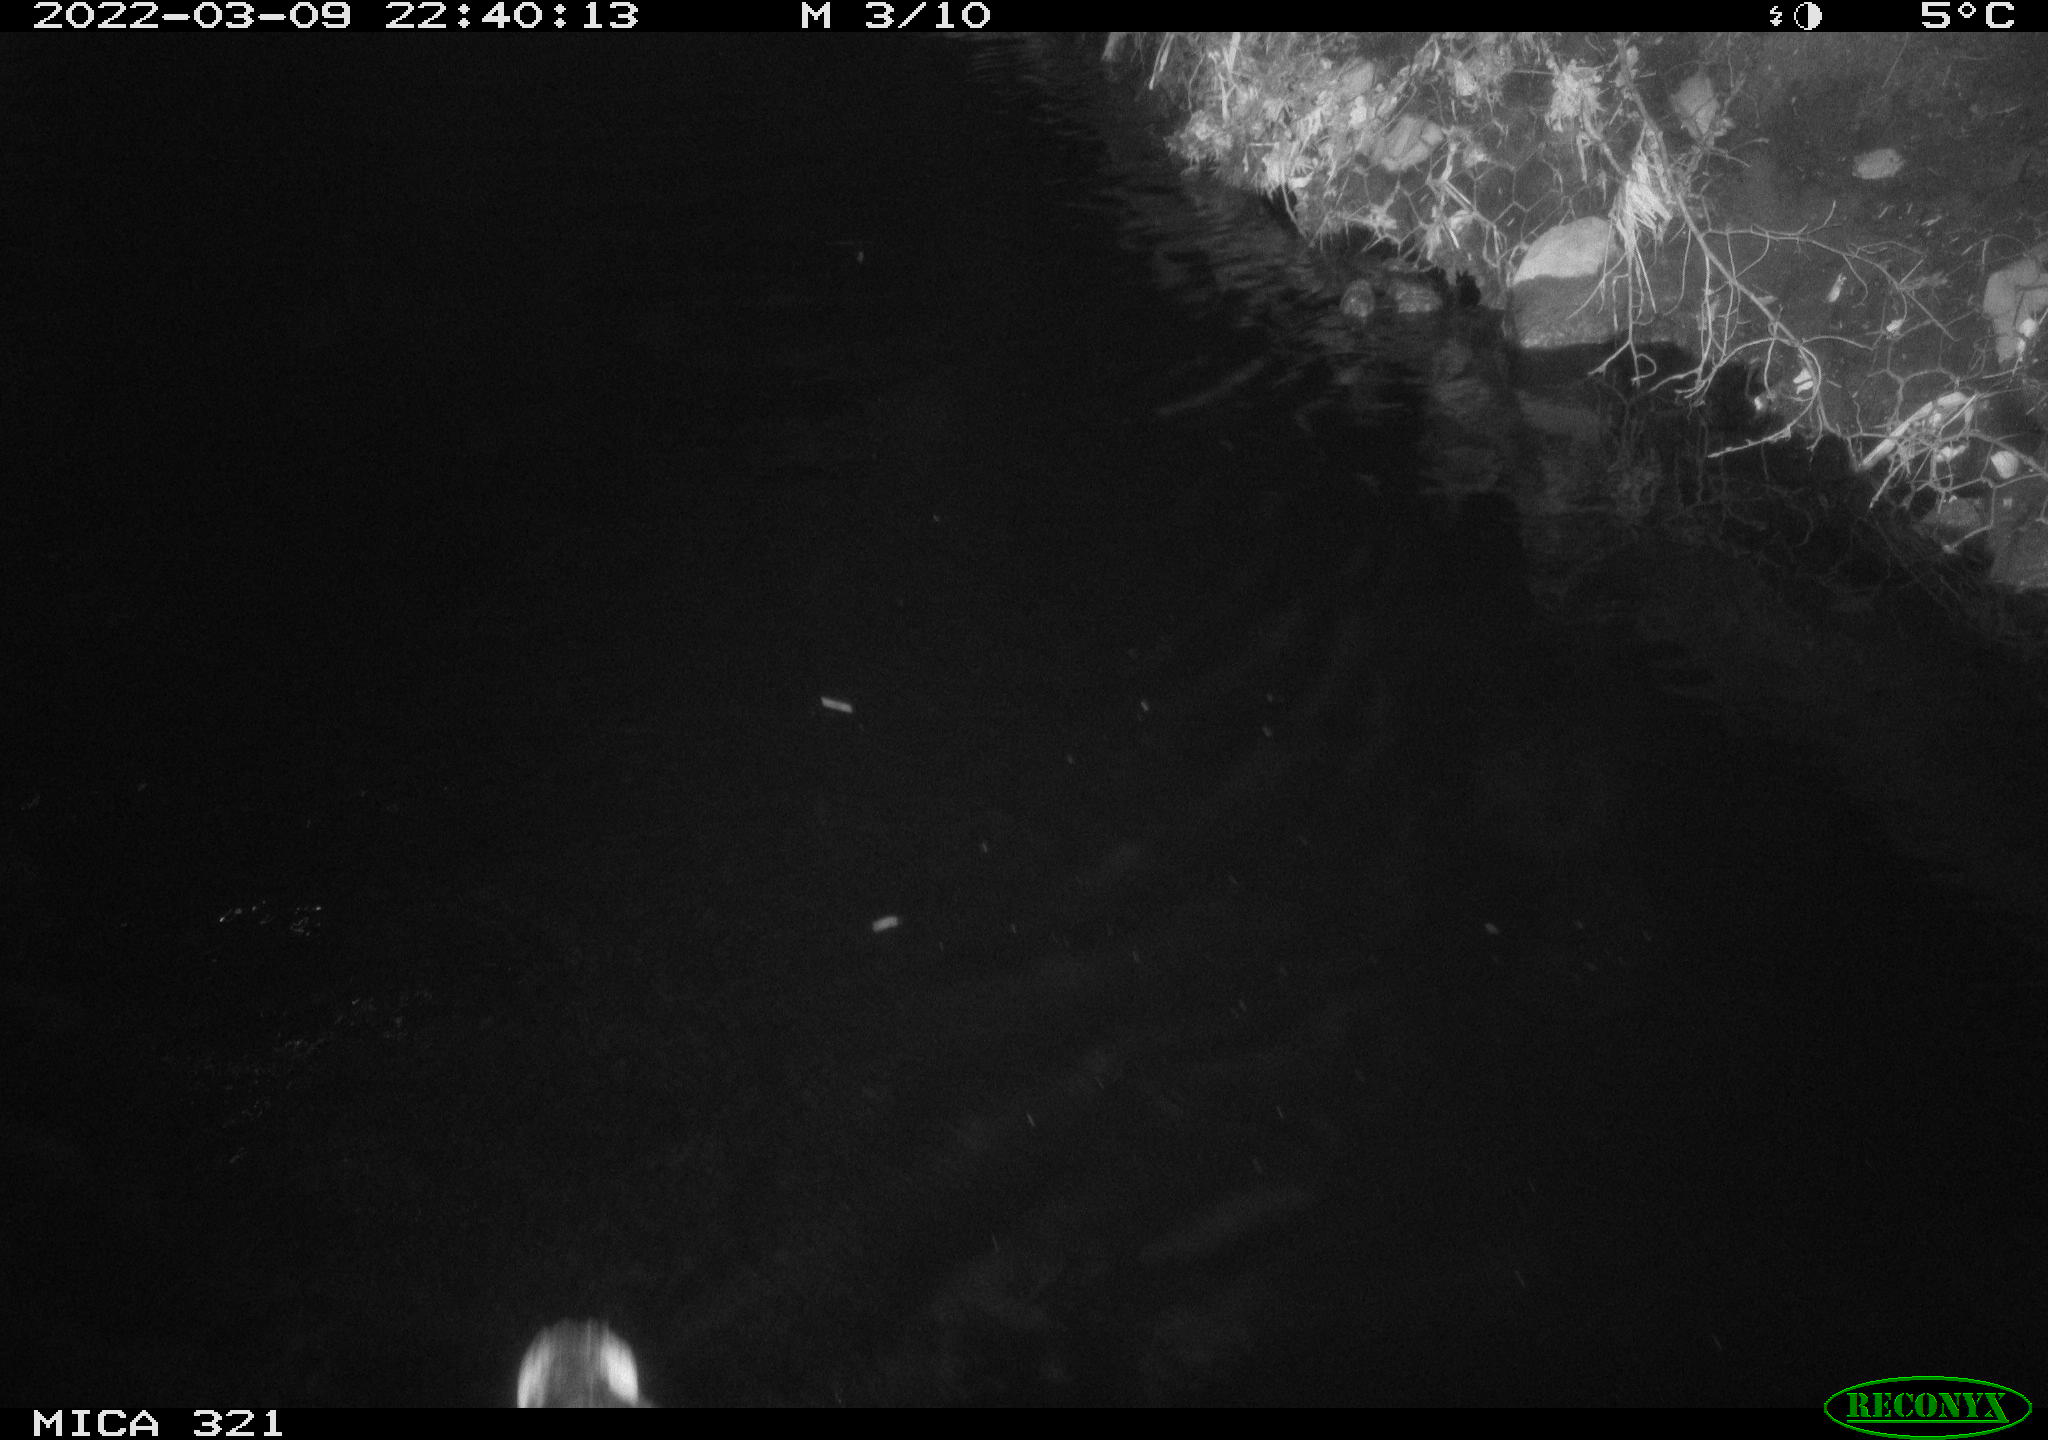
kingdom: Animalia
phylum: Chordata
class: Aves
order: Anseriformes
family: Anatidae
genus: Anas
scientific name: Anas platyrhynchos
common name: Mallard
